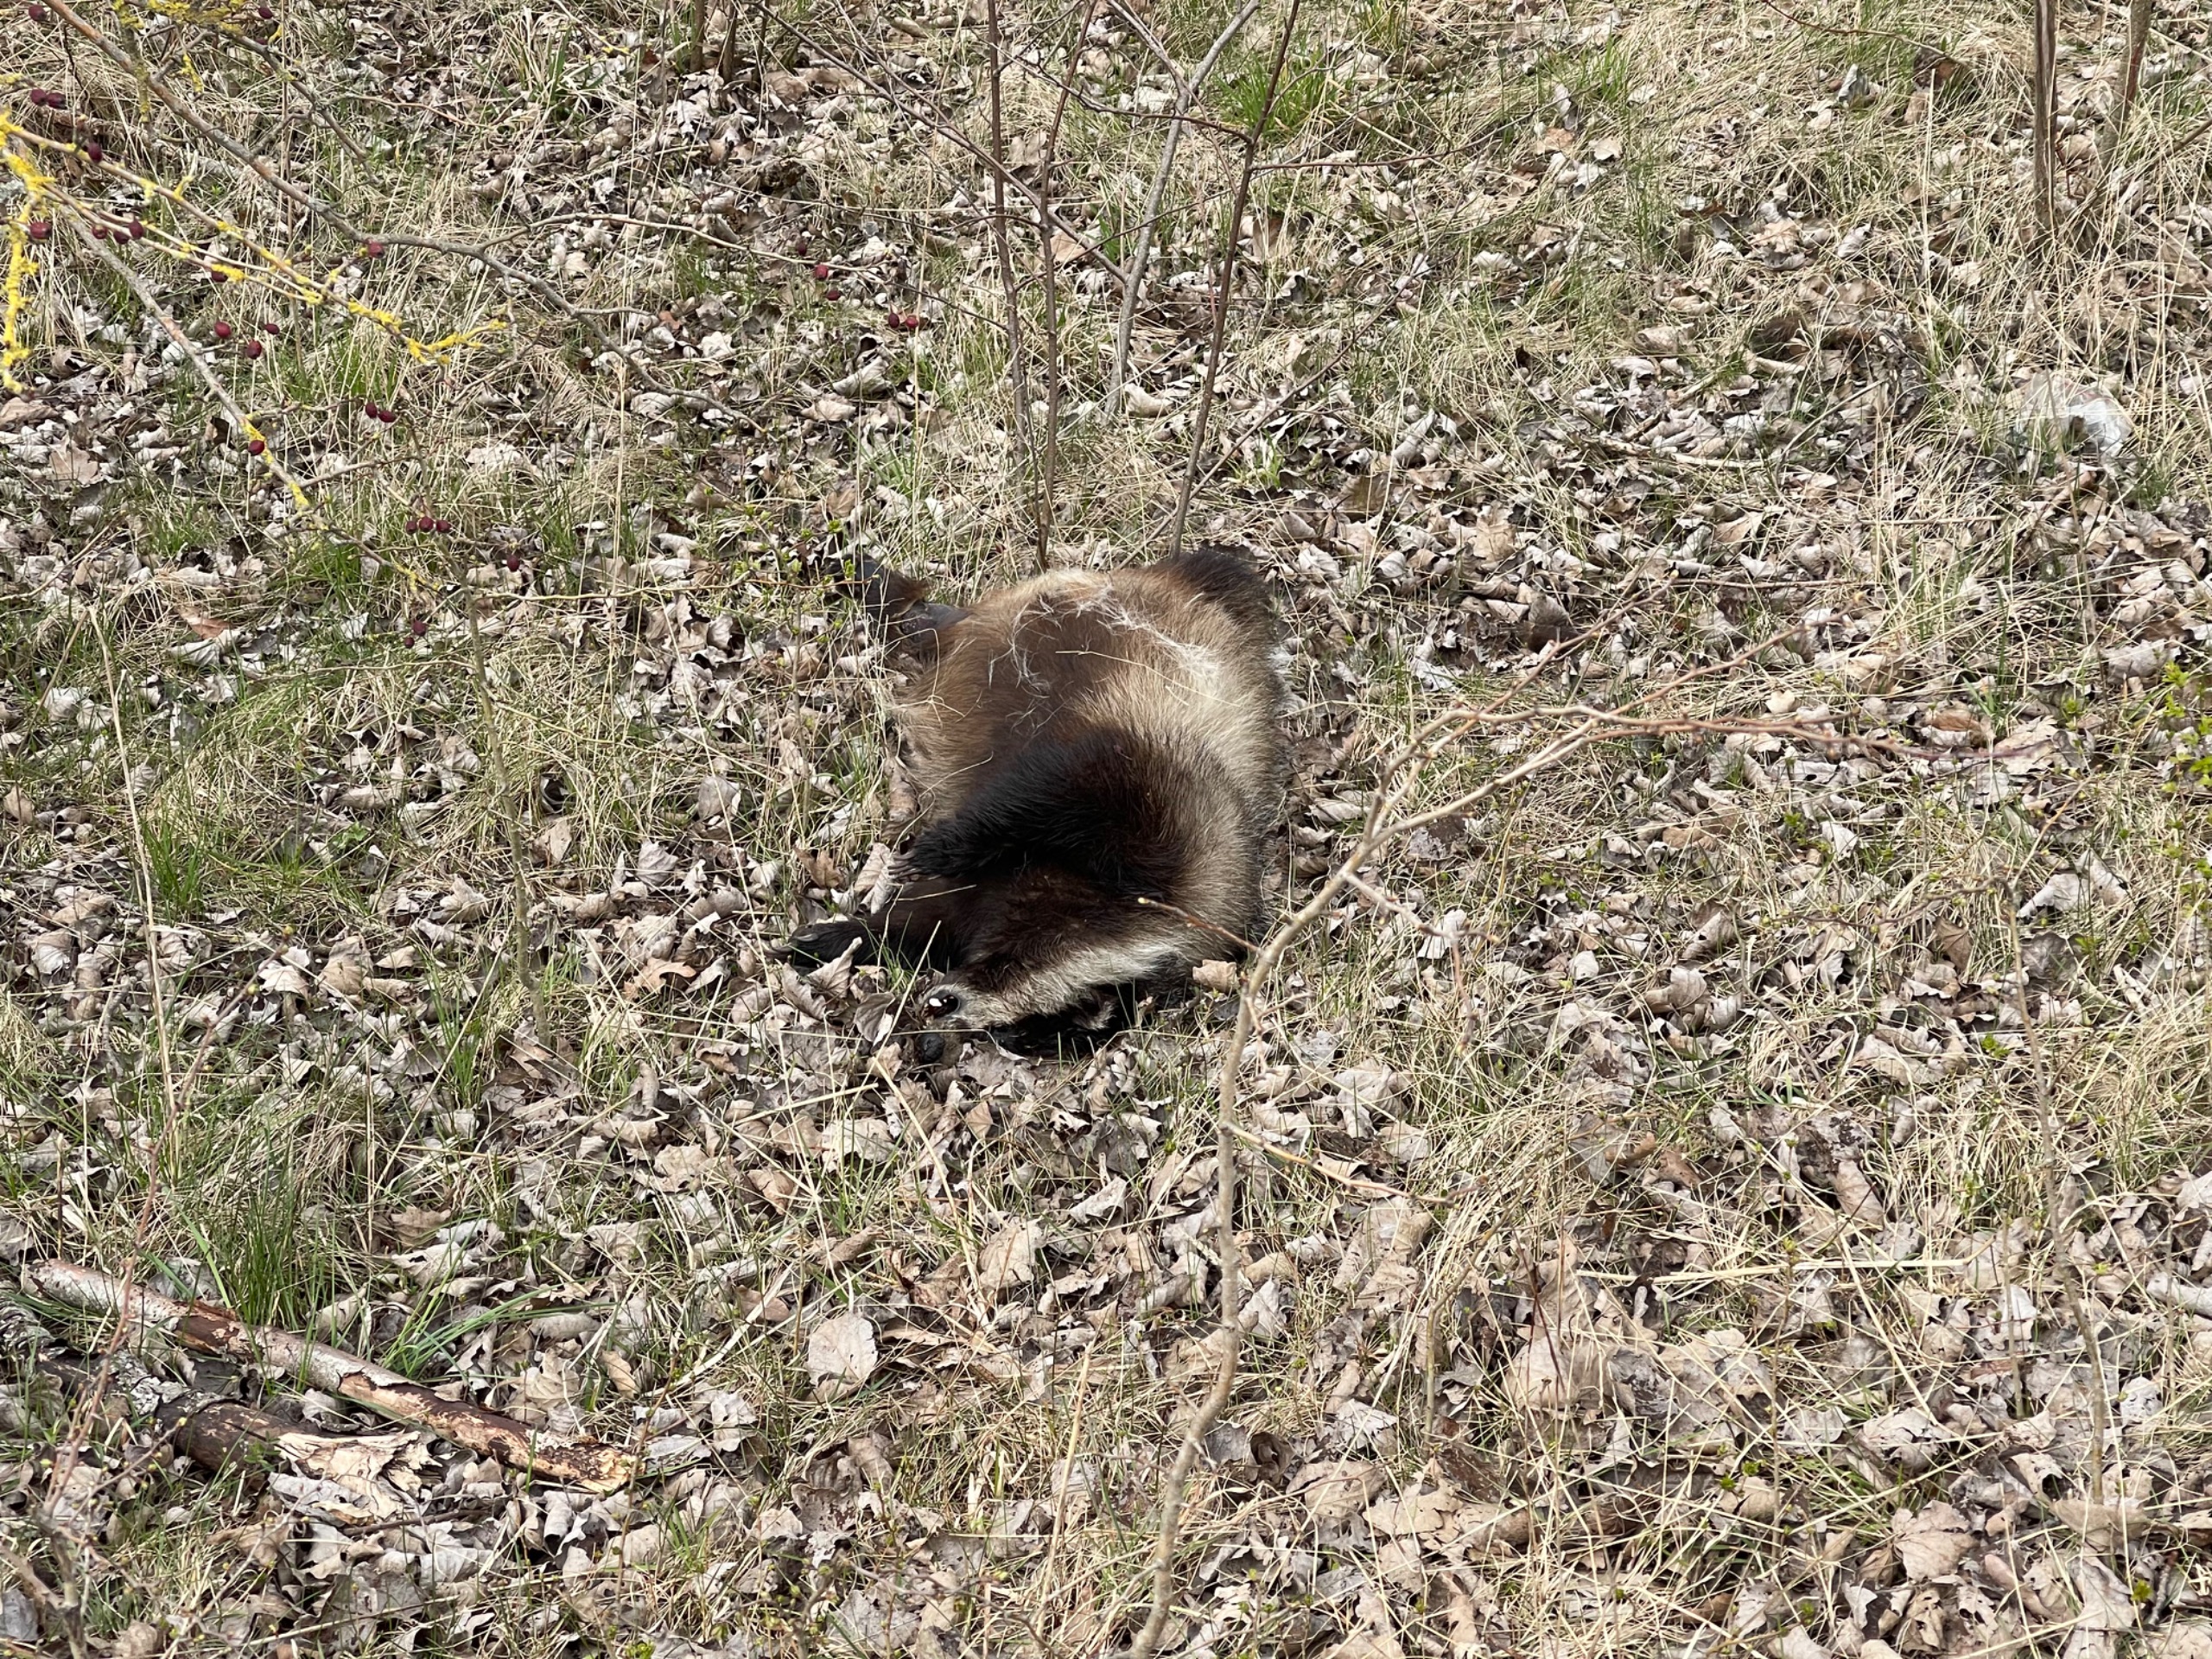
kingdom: Animalia
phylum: Chordata
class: Mammalia
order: Carnivora
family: Mustelidae
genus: Meles
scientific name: Meles meles
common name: Grævling
